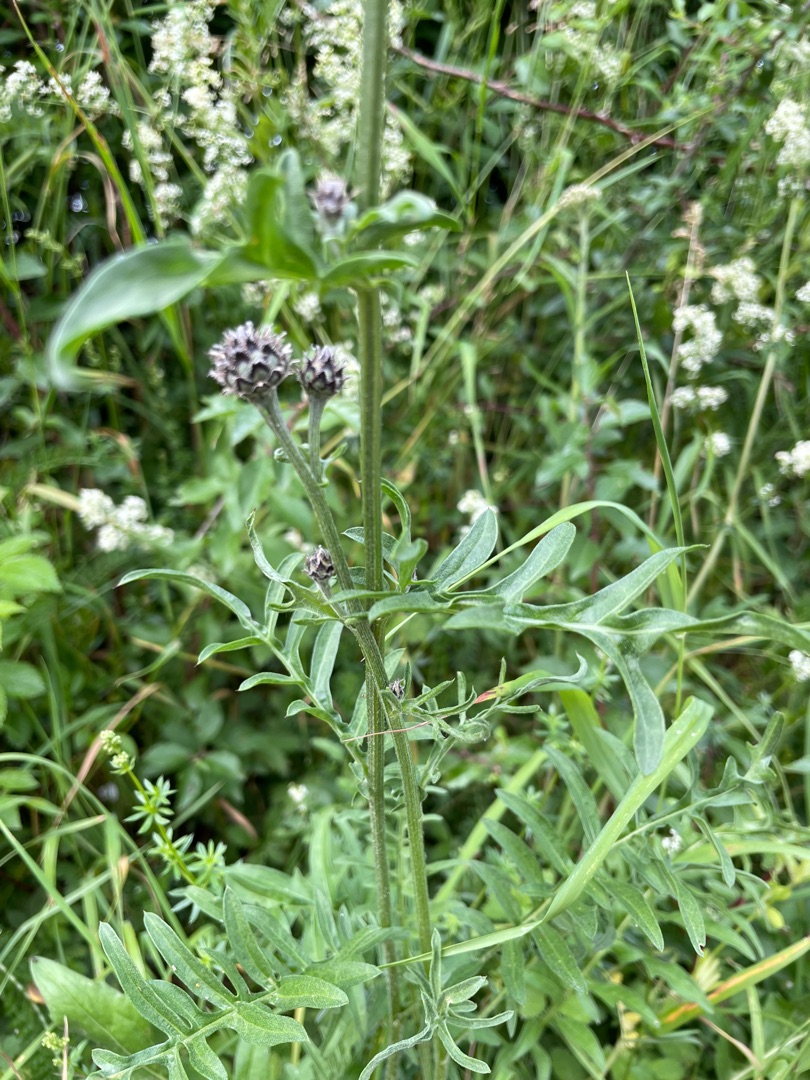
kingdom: Plantae
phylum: Tracheophyta
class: Magnoliopsida
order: Asterales
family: Asteraceae
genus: Centaurea
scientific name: Centaurea scabiosa
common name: Stor knopurt
